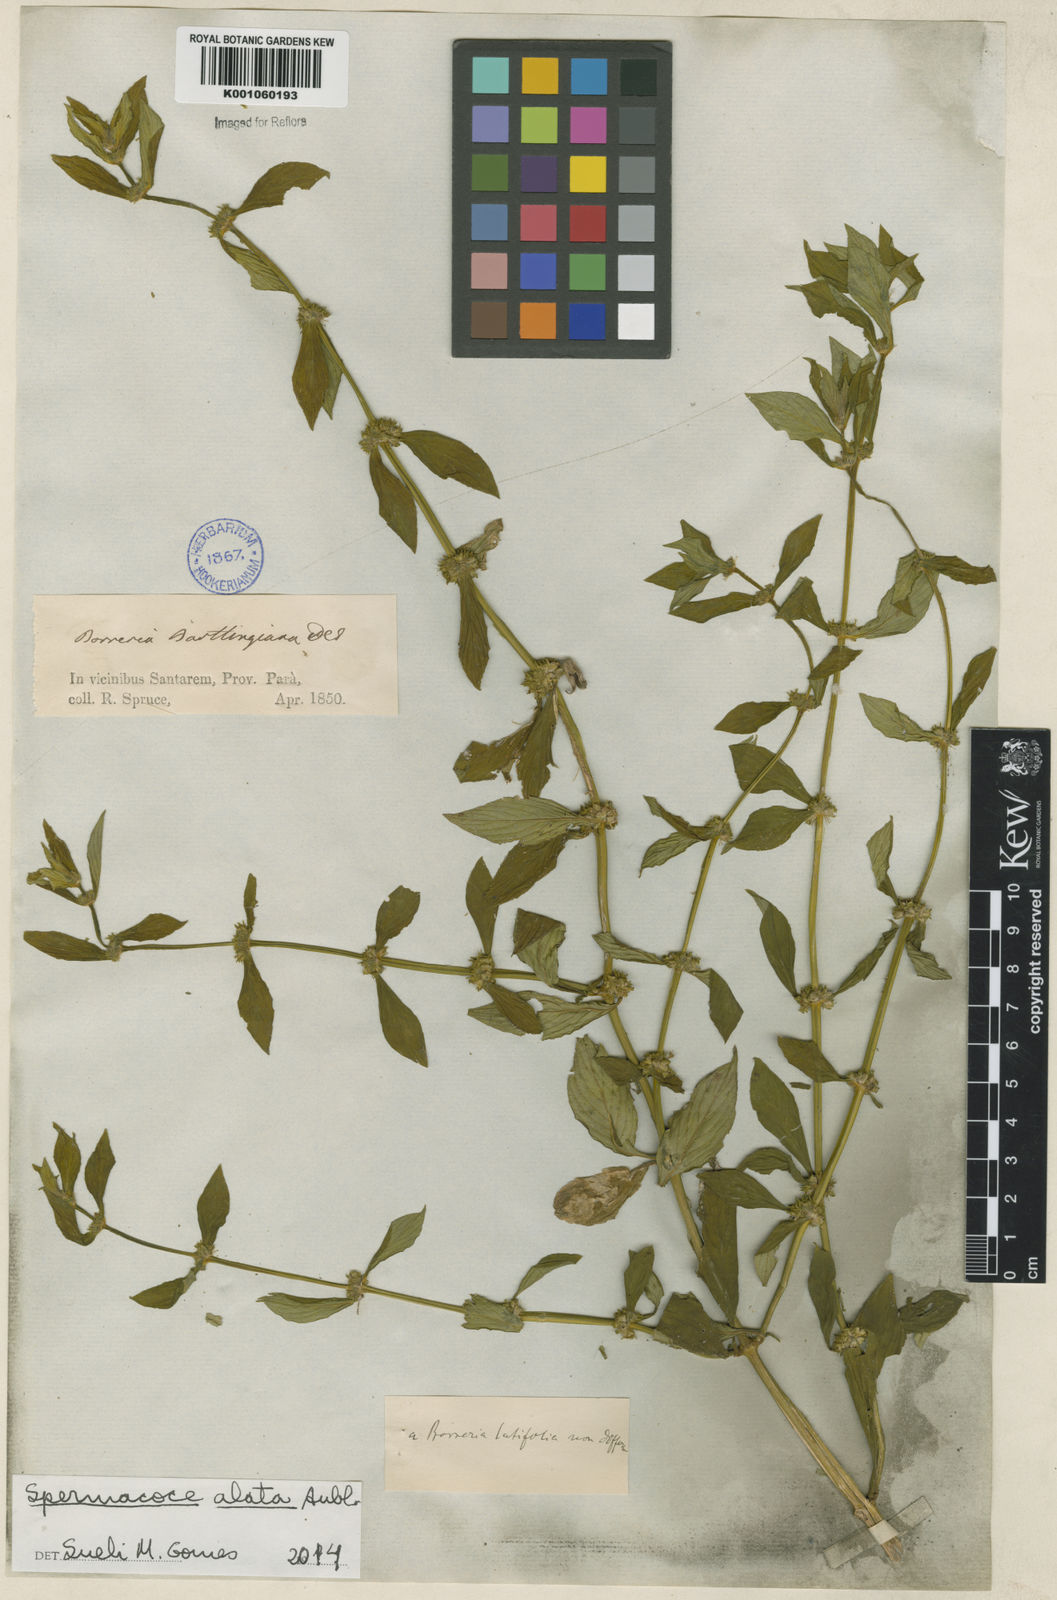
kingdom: Plantae
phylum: Tracheophyta
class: Magnoliopsida
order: Gentianales
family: Rubiaceae
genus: Spermacoce
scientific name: Spermacoce
